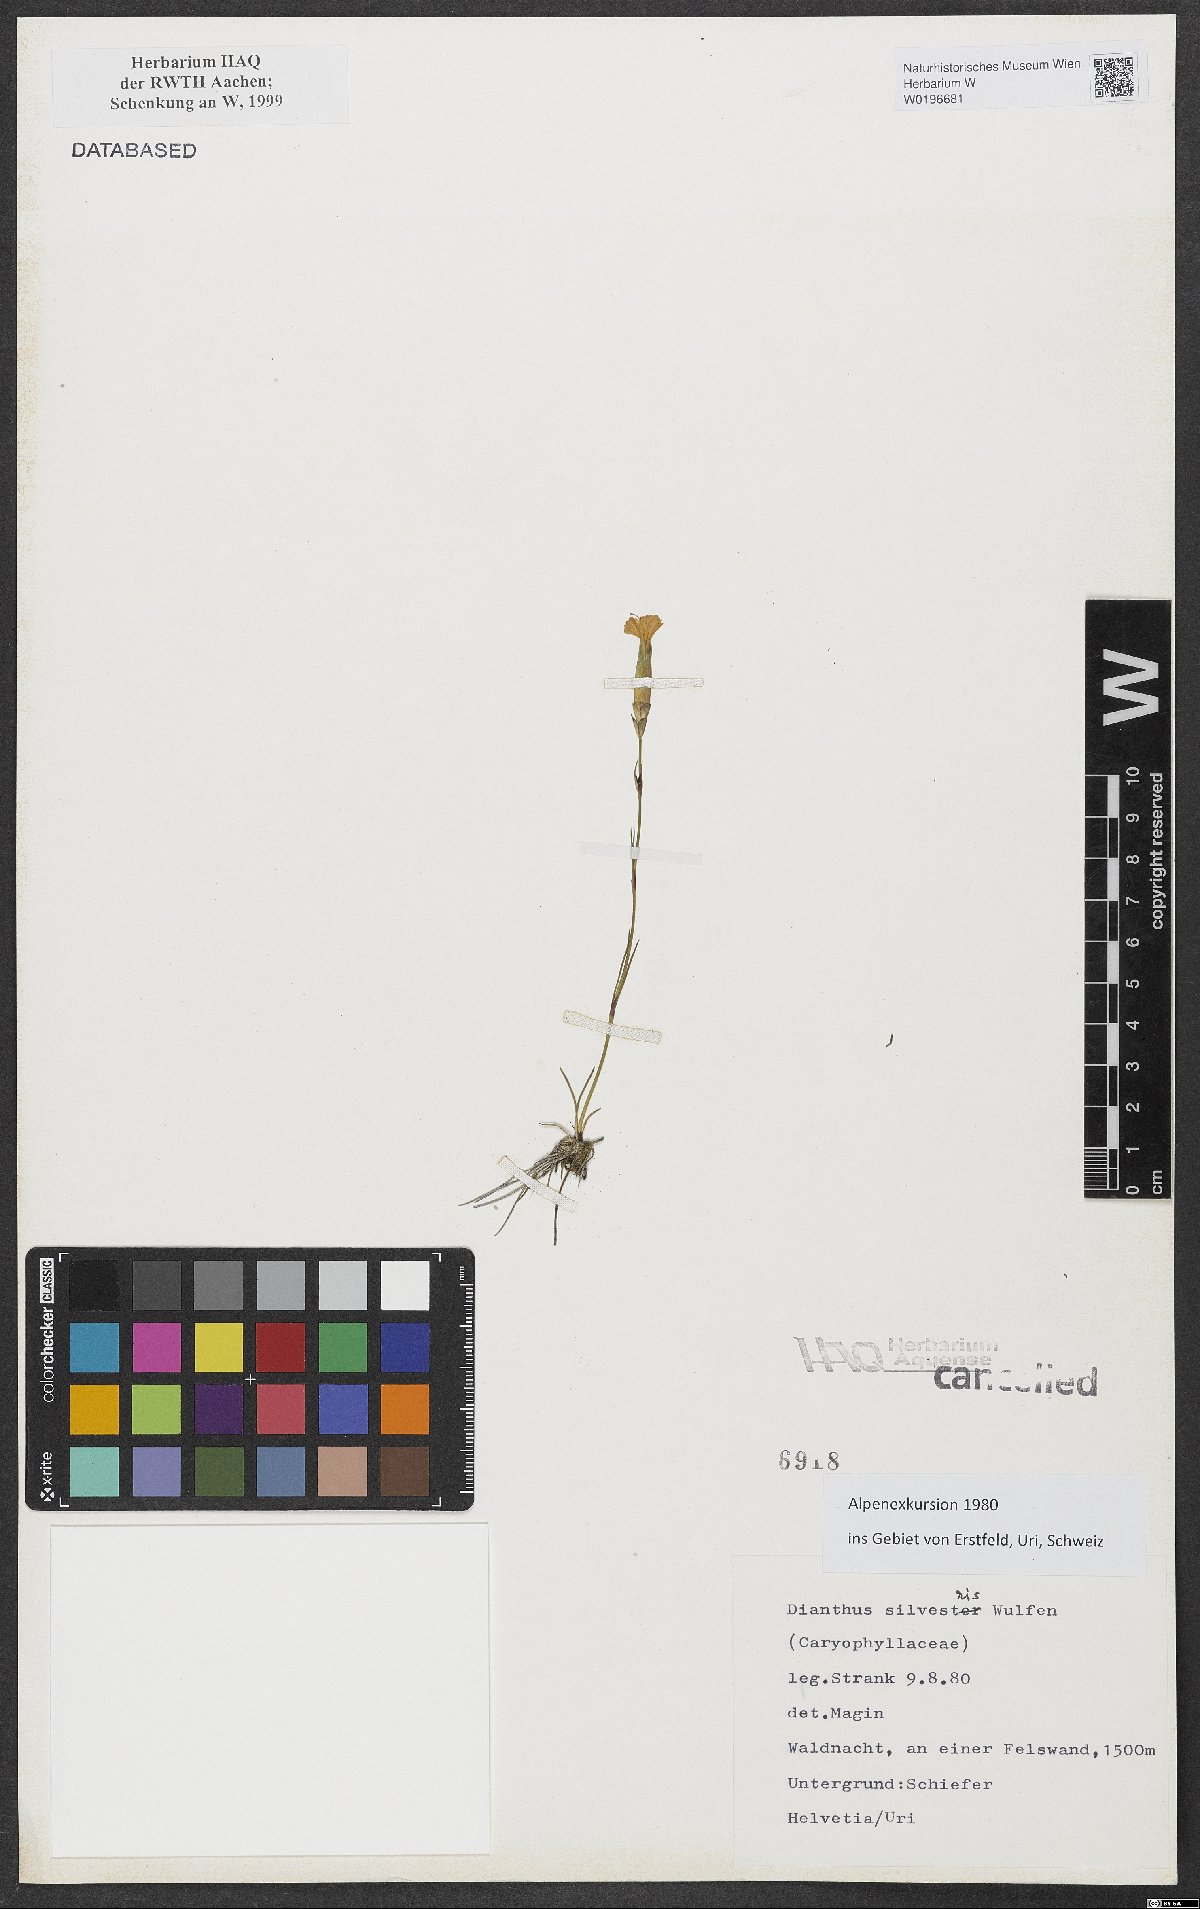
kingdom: Plantae
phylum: Tracheophyta
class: Magnoliopsida
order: Caryophyllales
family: Caryophyllaceae
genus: Dianthus
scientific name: Dianthus sylvestris
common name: Wood pink
